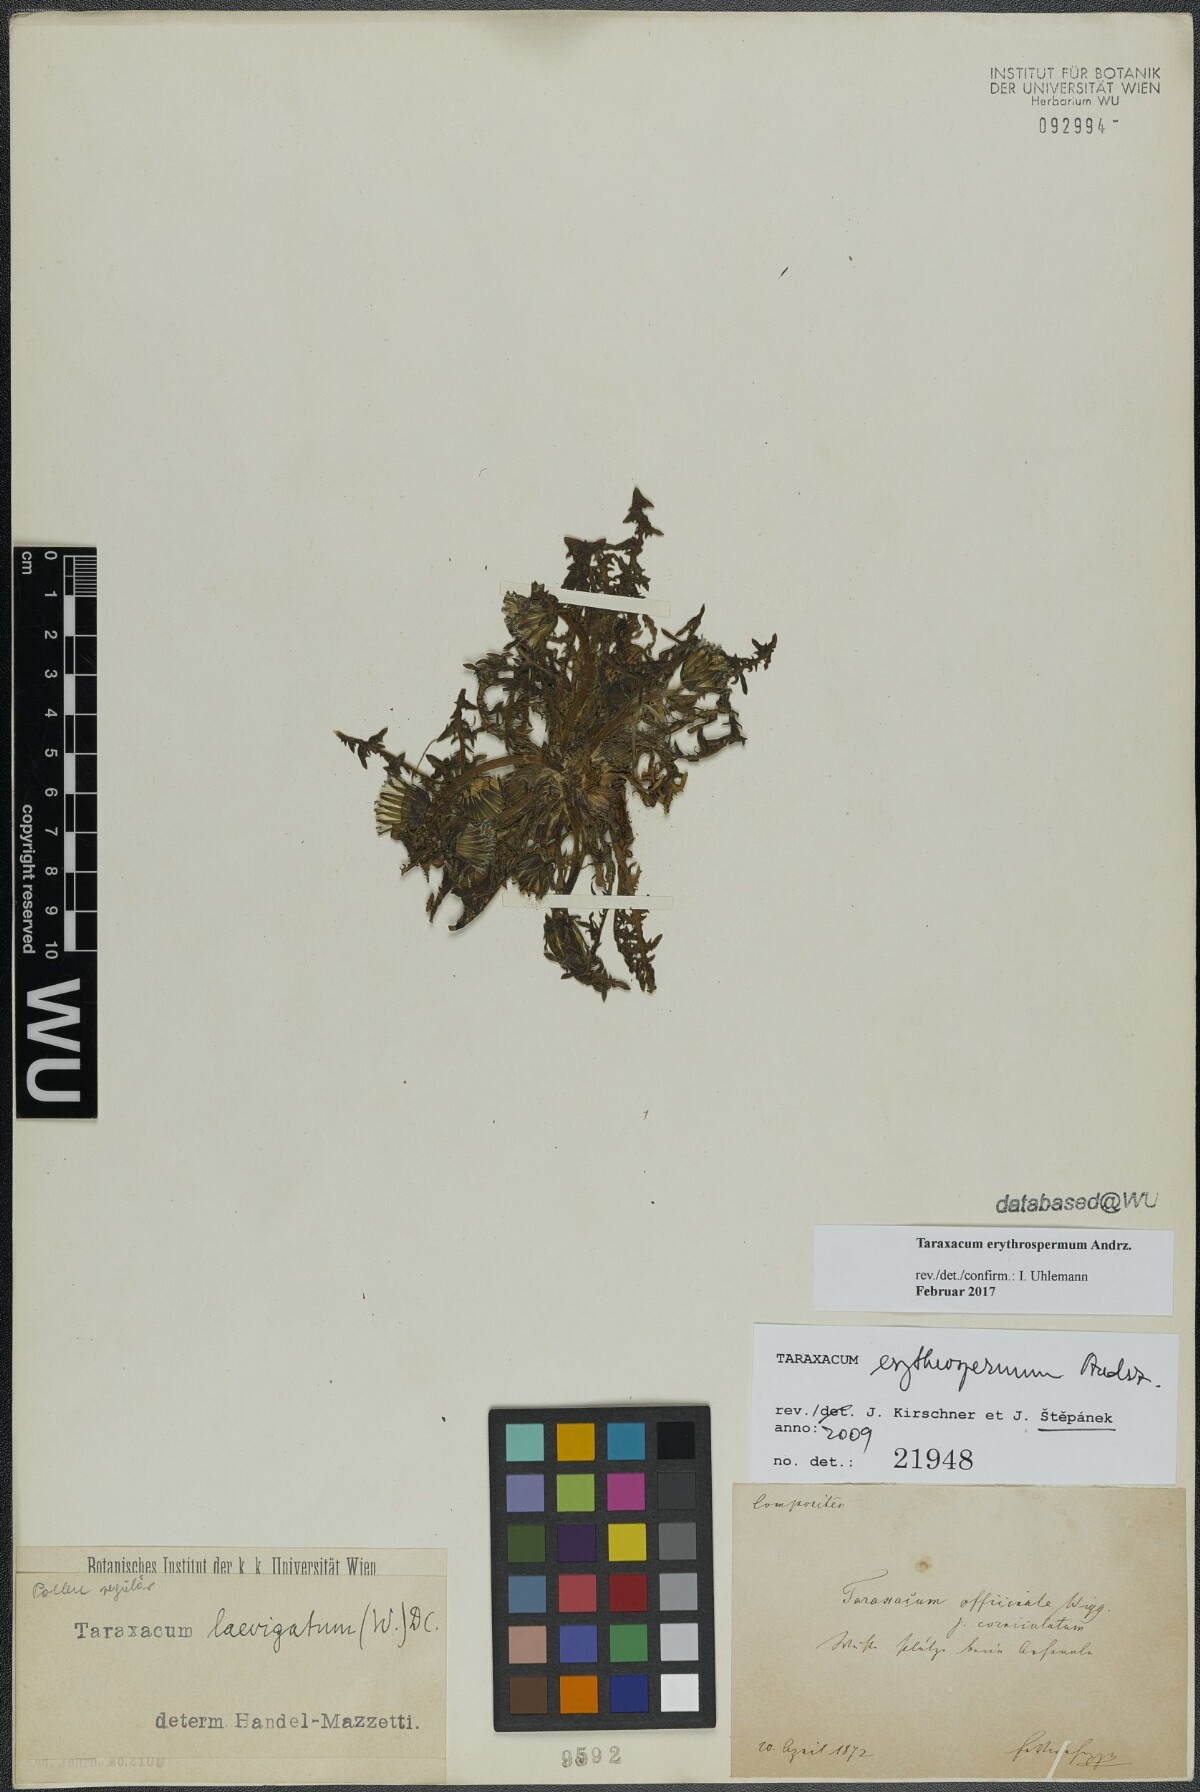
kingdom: Plantae
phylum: Tracheophyta
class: Magnoliopsida
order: Asterales
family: Asteraceae
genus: Taraxacum
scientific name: Taraxacum erythrospermum
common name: Rock dandelion
